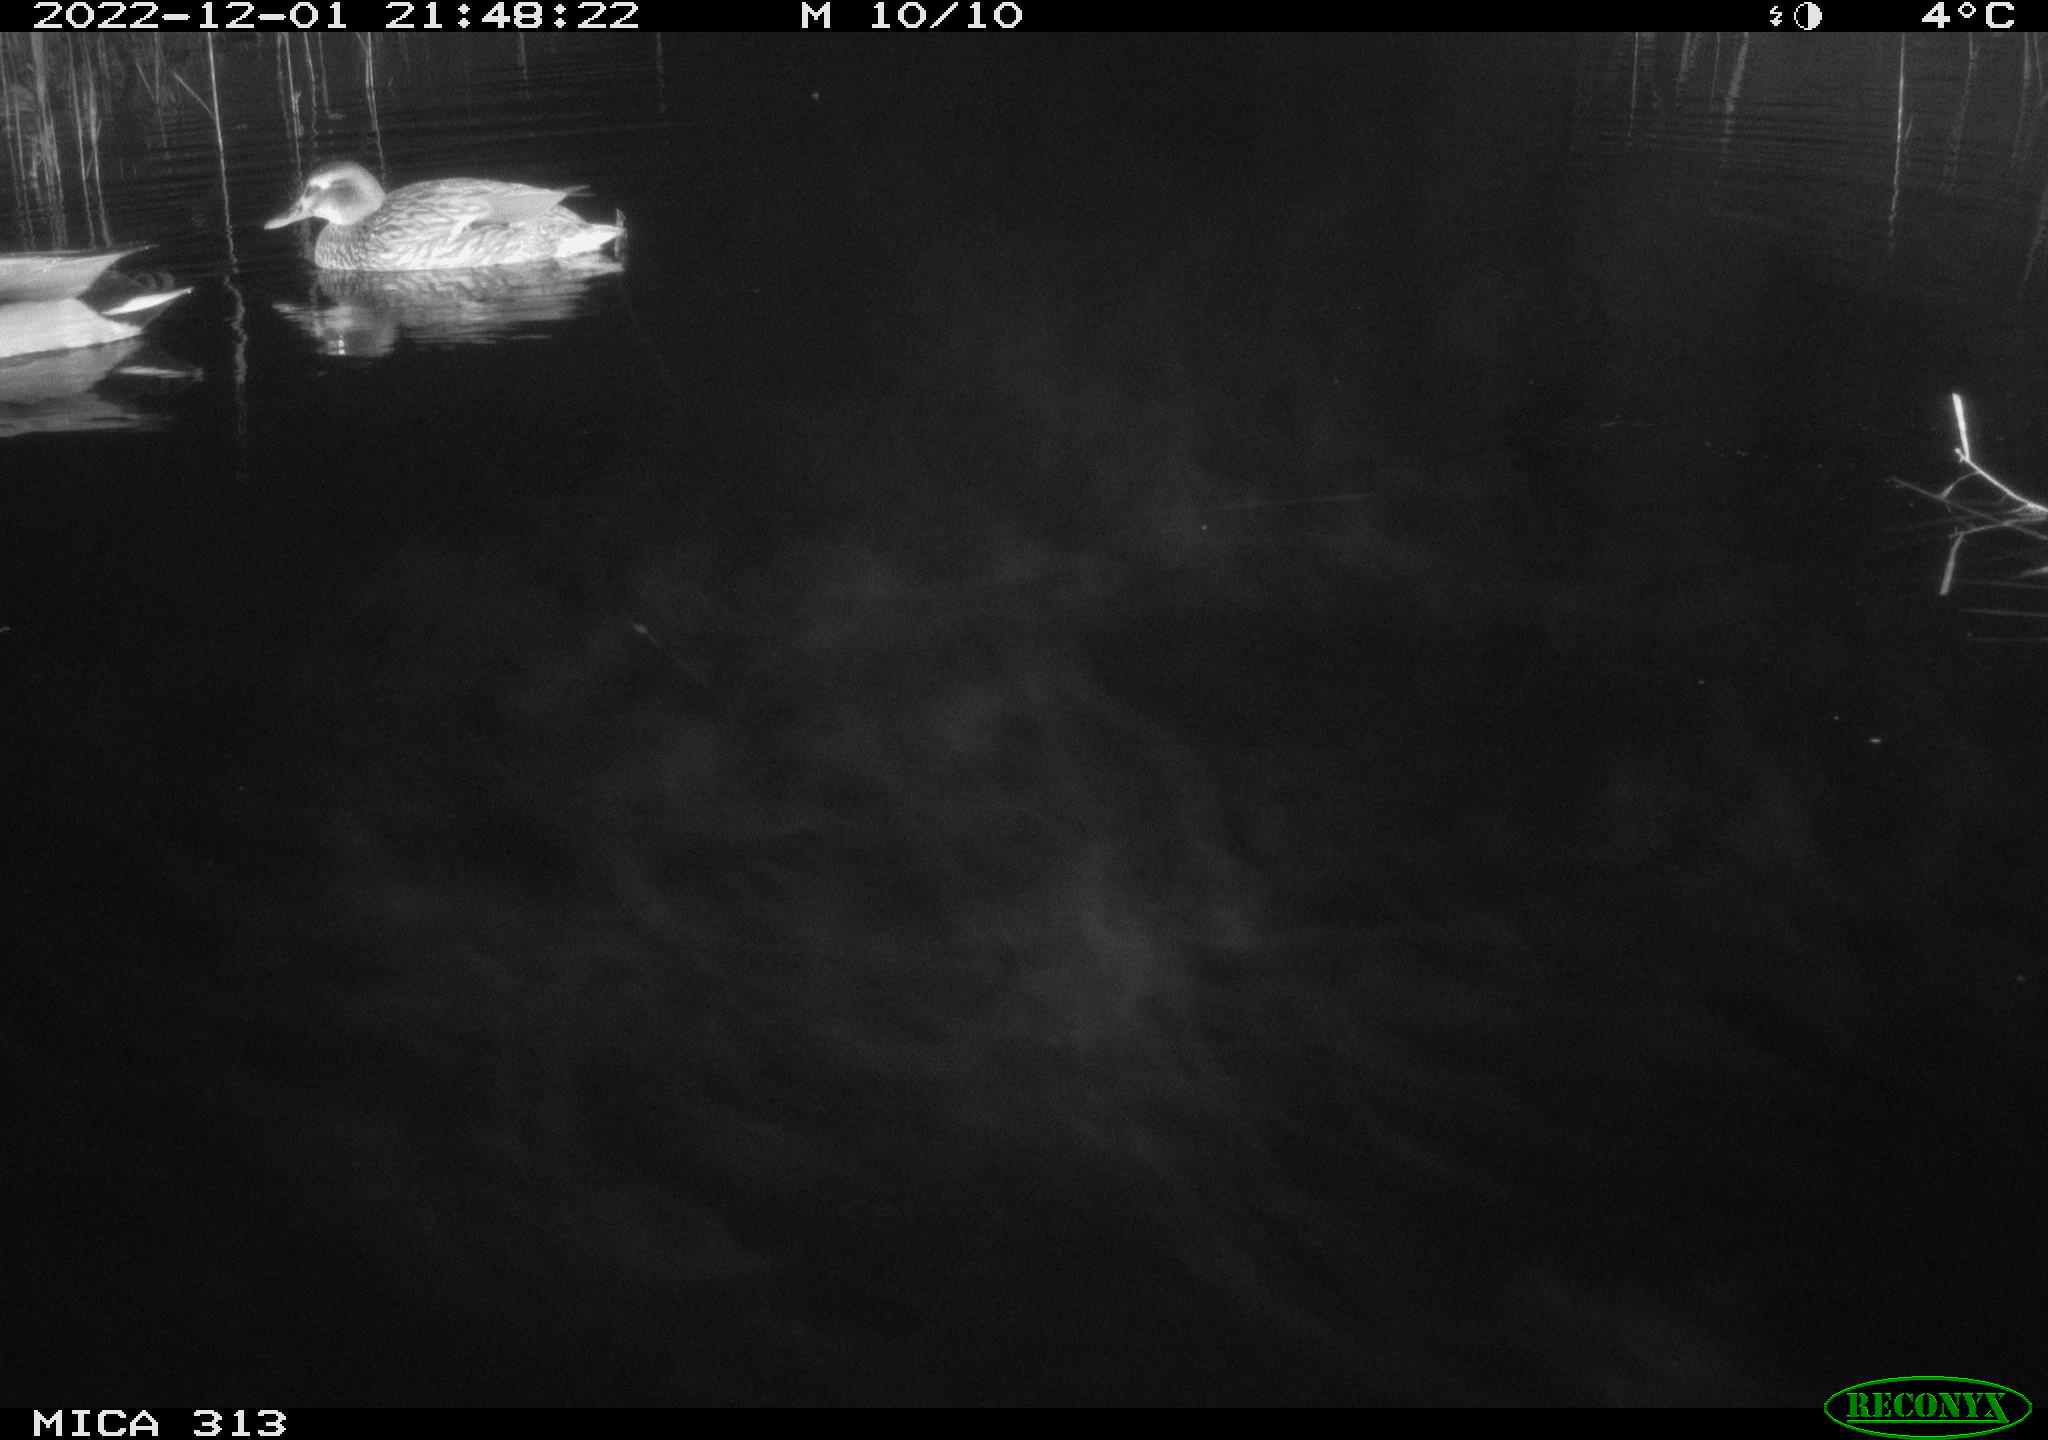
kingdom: Animalia
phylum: Chordata
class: Aves
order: Anseriformes
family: Anatidae
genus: Anas
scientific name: Anas
